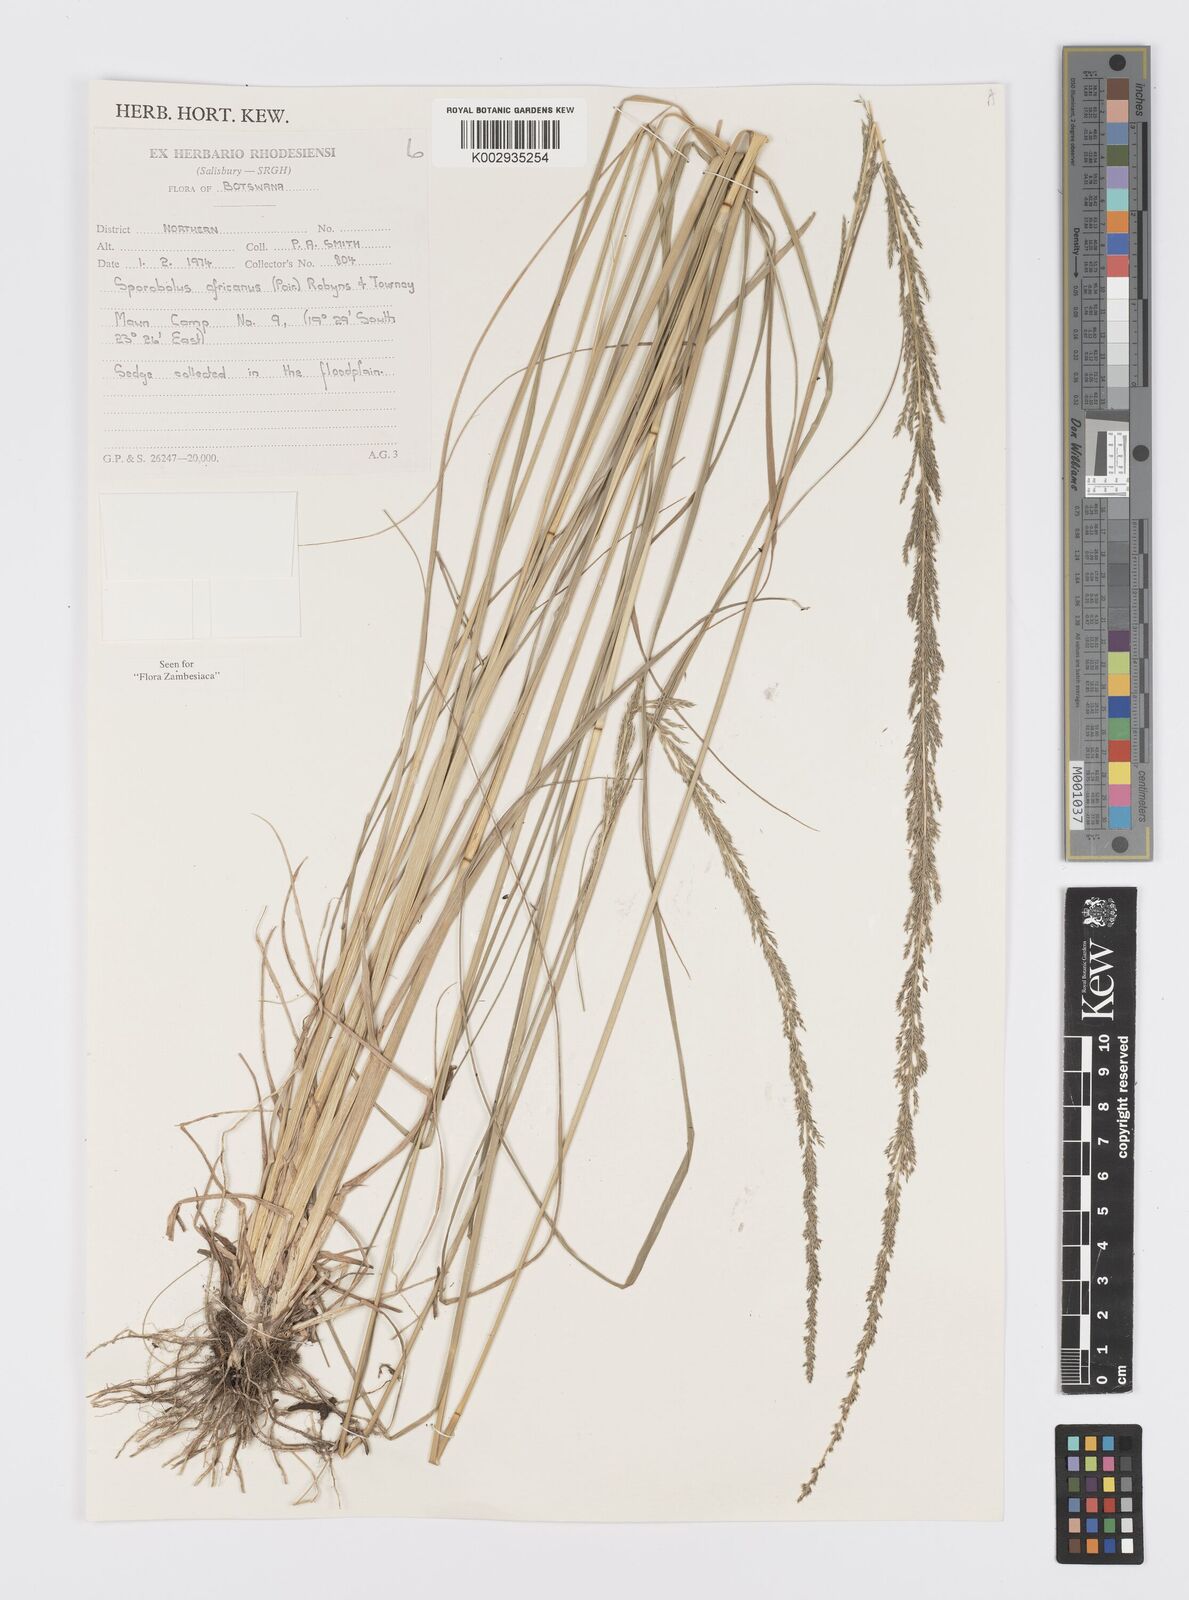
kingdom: Plantae
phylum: Tracheophyta
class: Liliopsida
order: Poales
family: Poaceae
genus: Sporobolus
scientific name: Sporobolus africanus
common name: African dropseed
